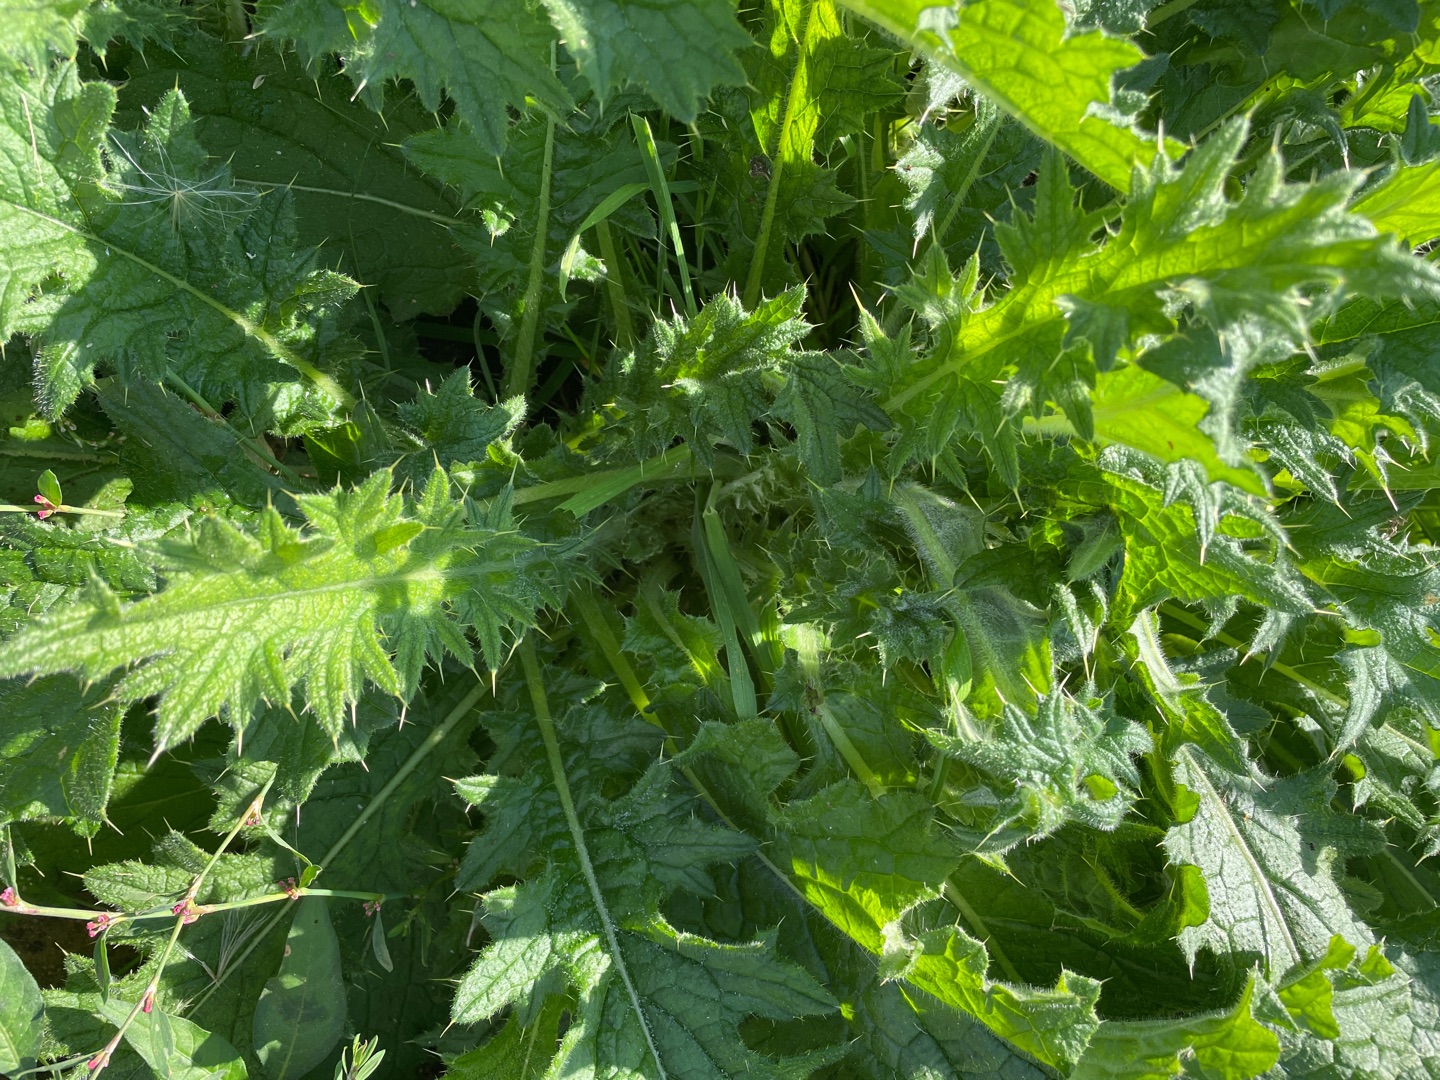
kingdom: Plantae
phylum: Tracheophyta
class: Magnoliopsida
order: Asterales
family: Asteraceae
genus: Cirsium
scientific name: Cirsium vulgare
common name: Horse-tidsel
